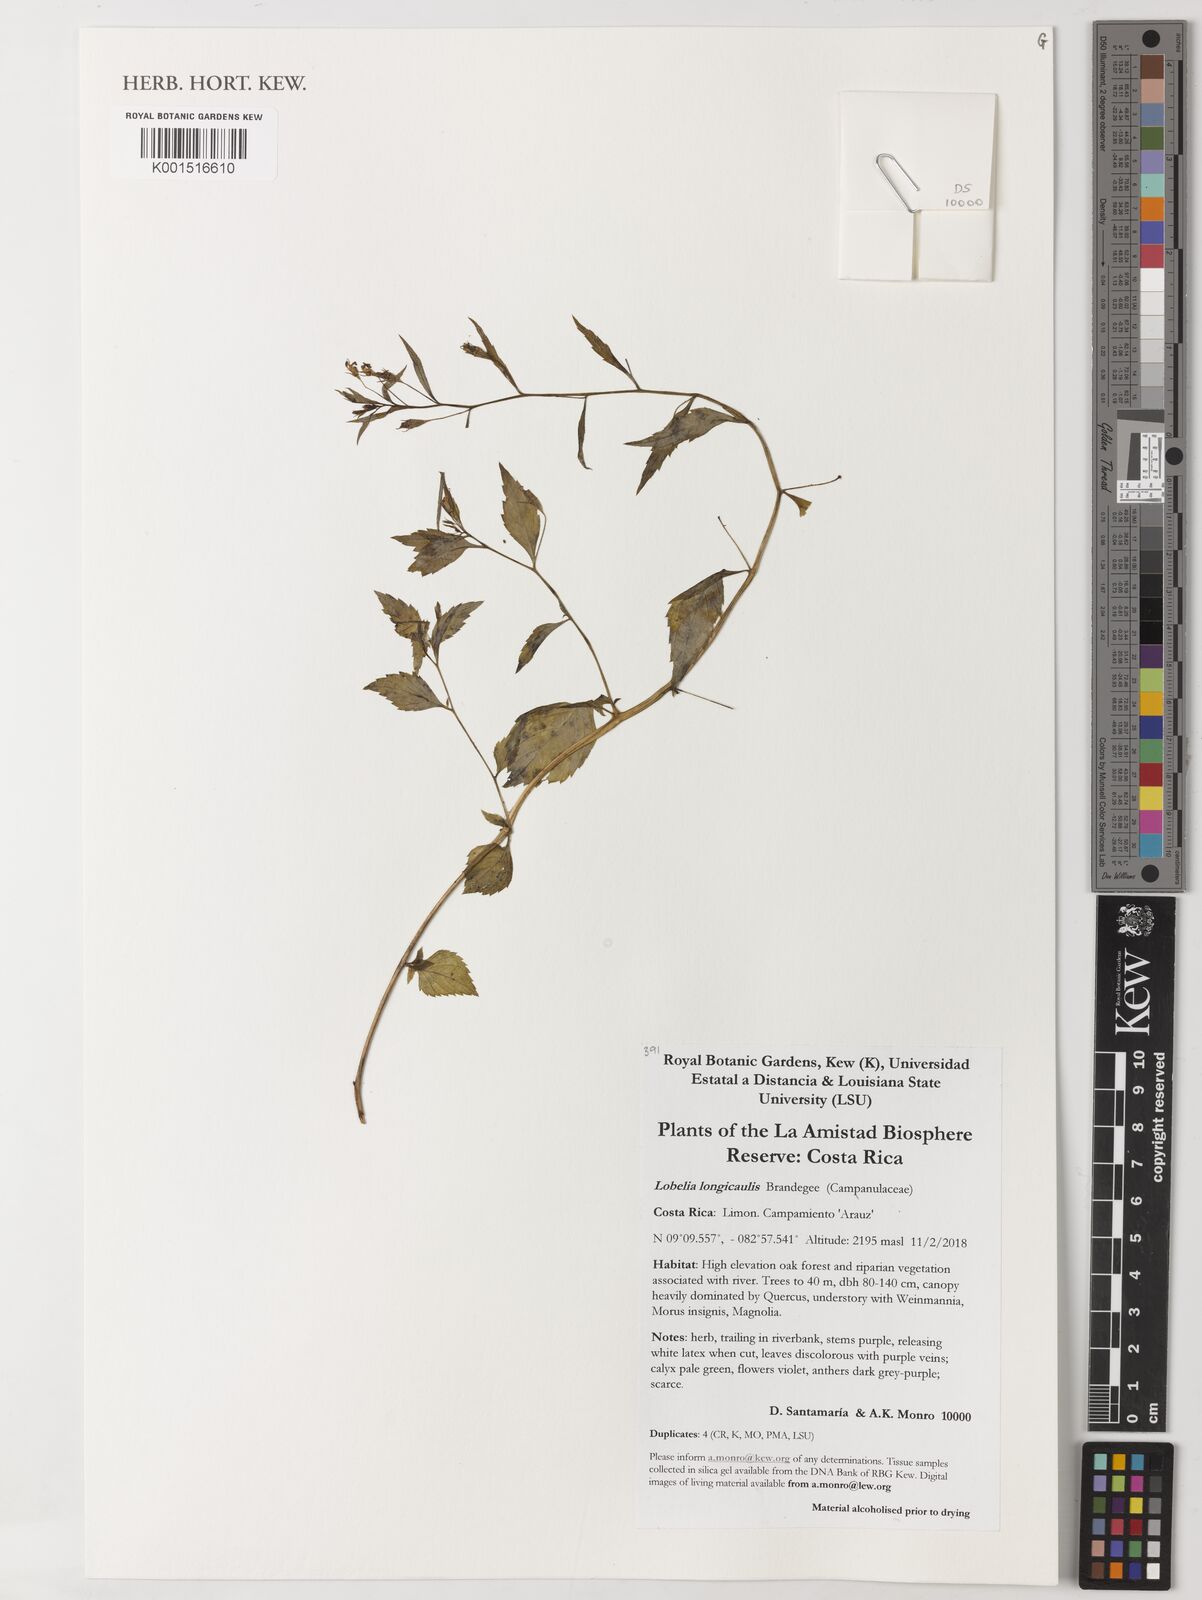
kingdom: Plantae
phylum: Tracheophyta
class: Magnoliopsida
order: Asterales
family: Campanulaceae
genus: Lobelia
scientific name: Lobelia longicaulis
